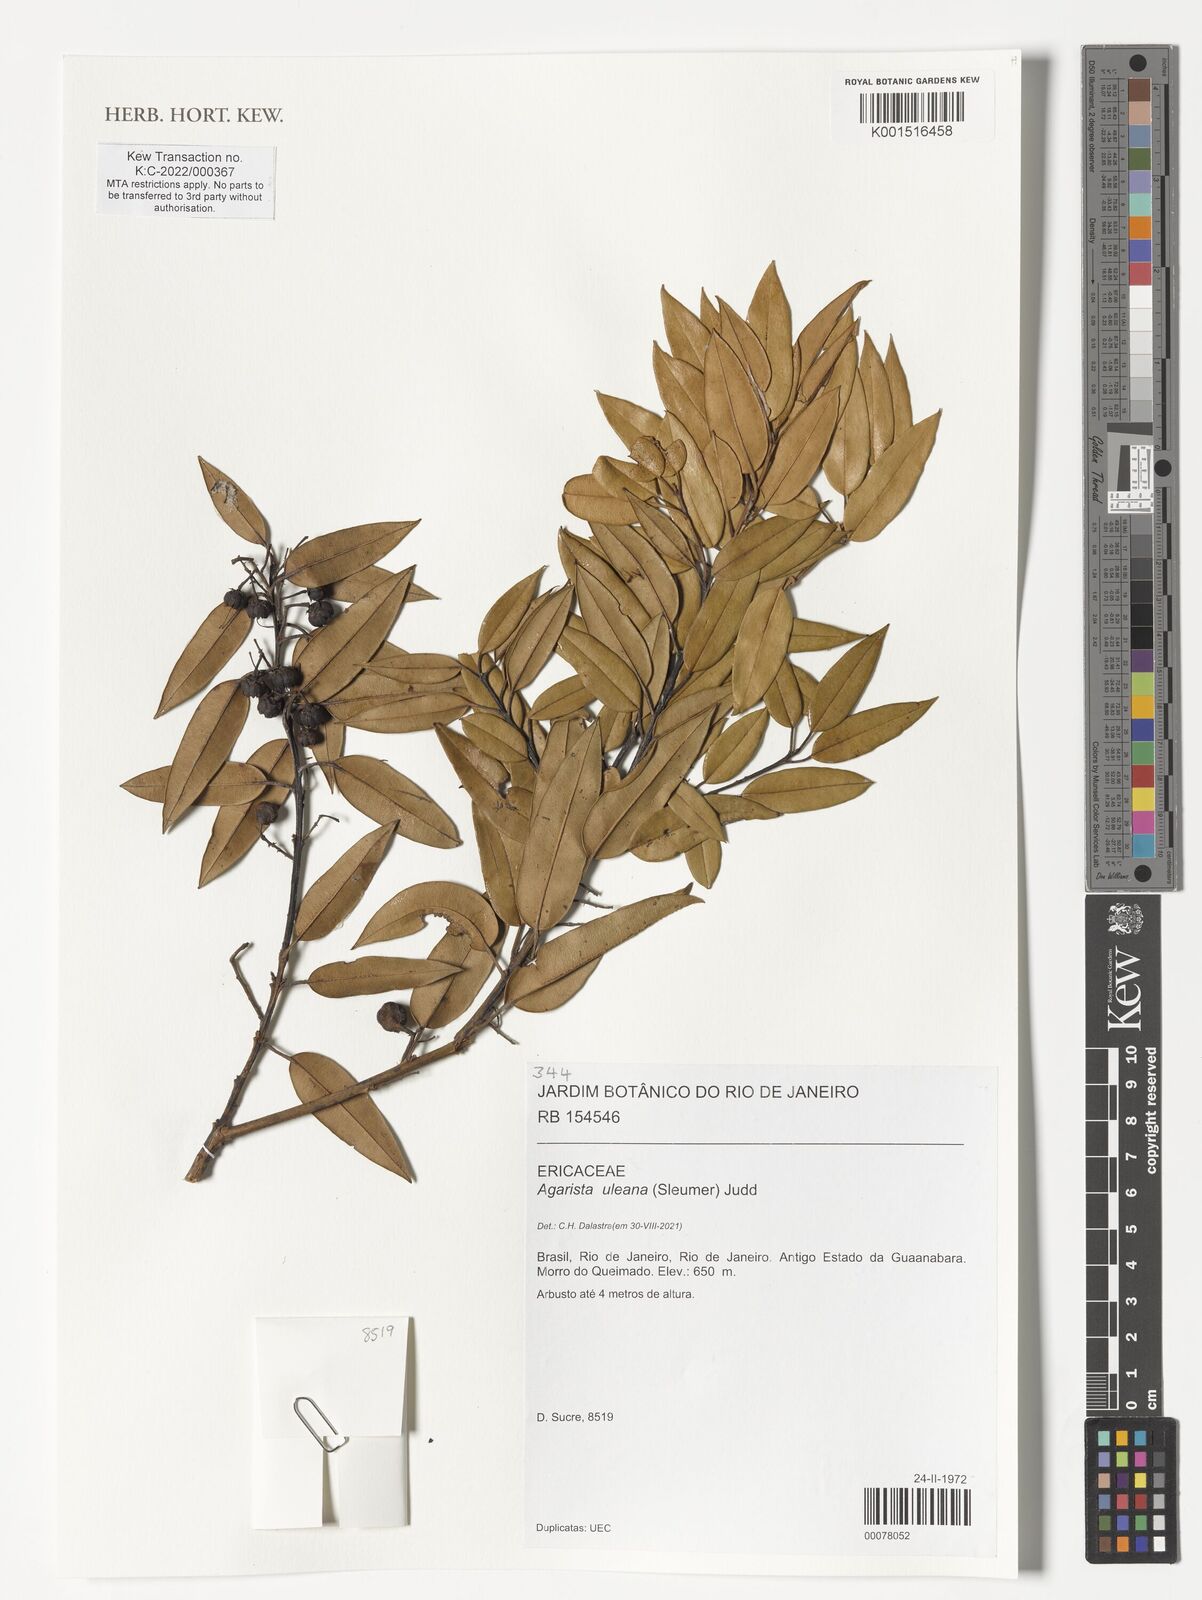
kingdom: Plantae
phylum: Tracheophyta
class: Magnoliopsida
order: Ericales
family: Ericaceae
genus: Agarista
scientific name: Agarista uleana
